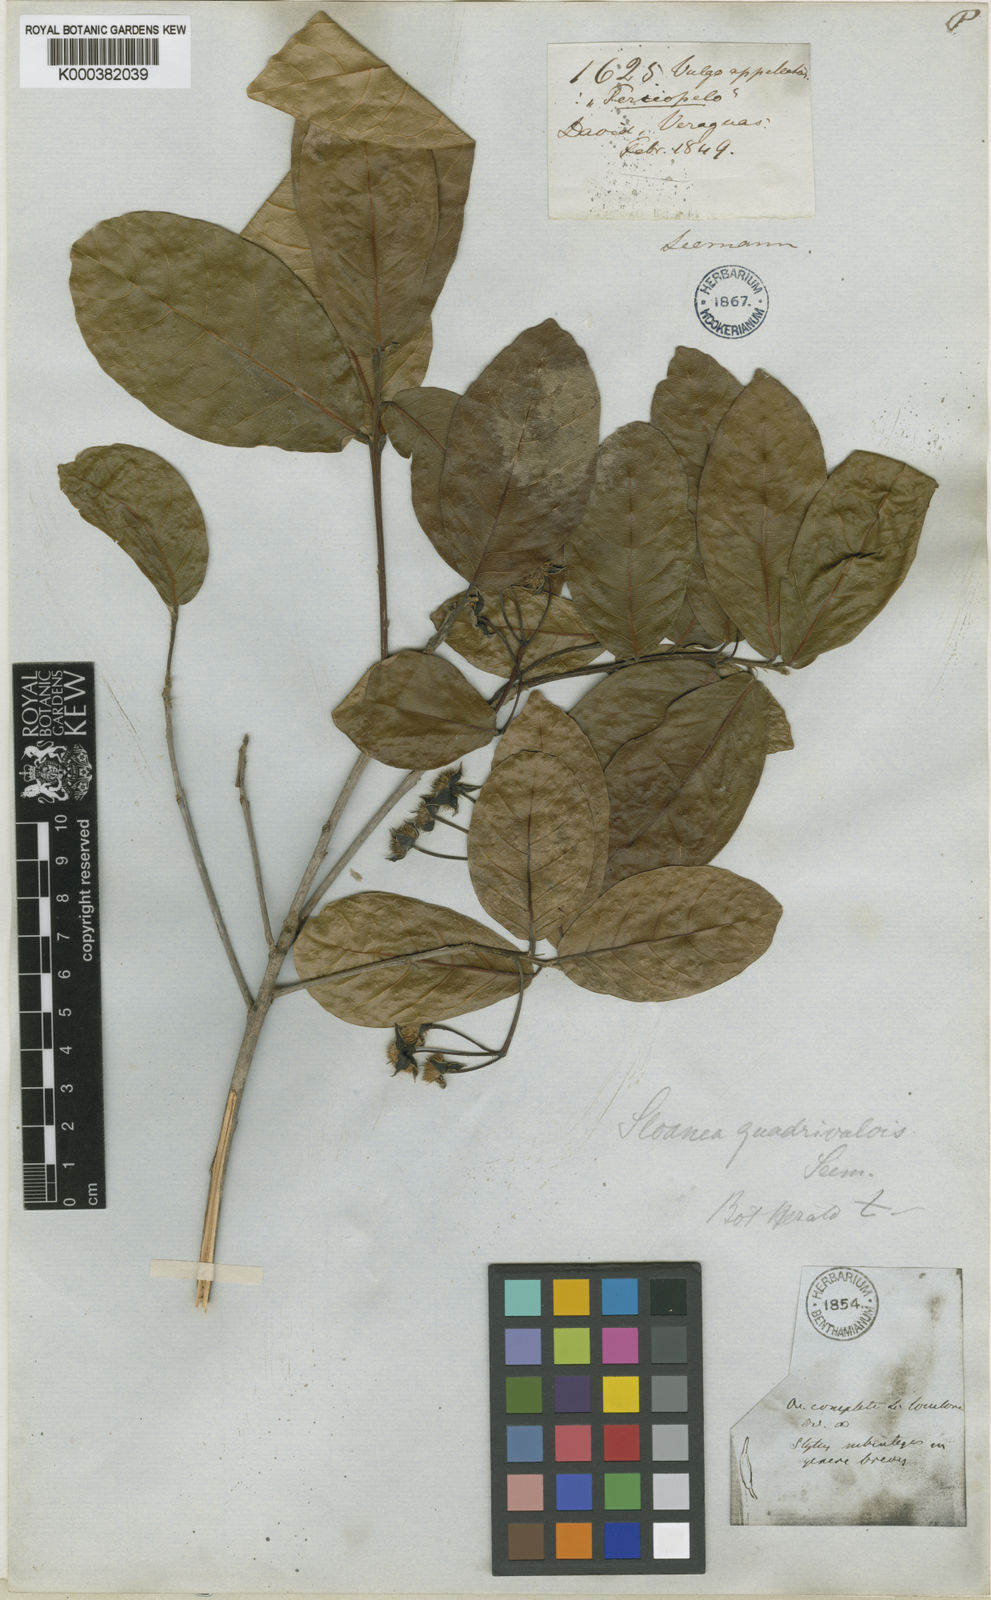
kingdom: Plantae
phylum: Tracheophyta
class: Magnoliopsida
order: Oxalidales
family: Elaeocarpaceae
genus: Sloanea
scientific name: Sloanea
